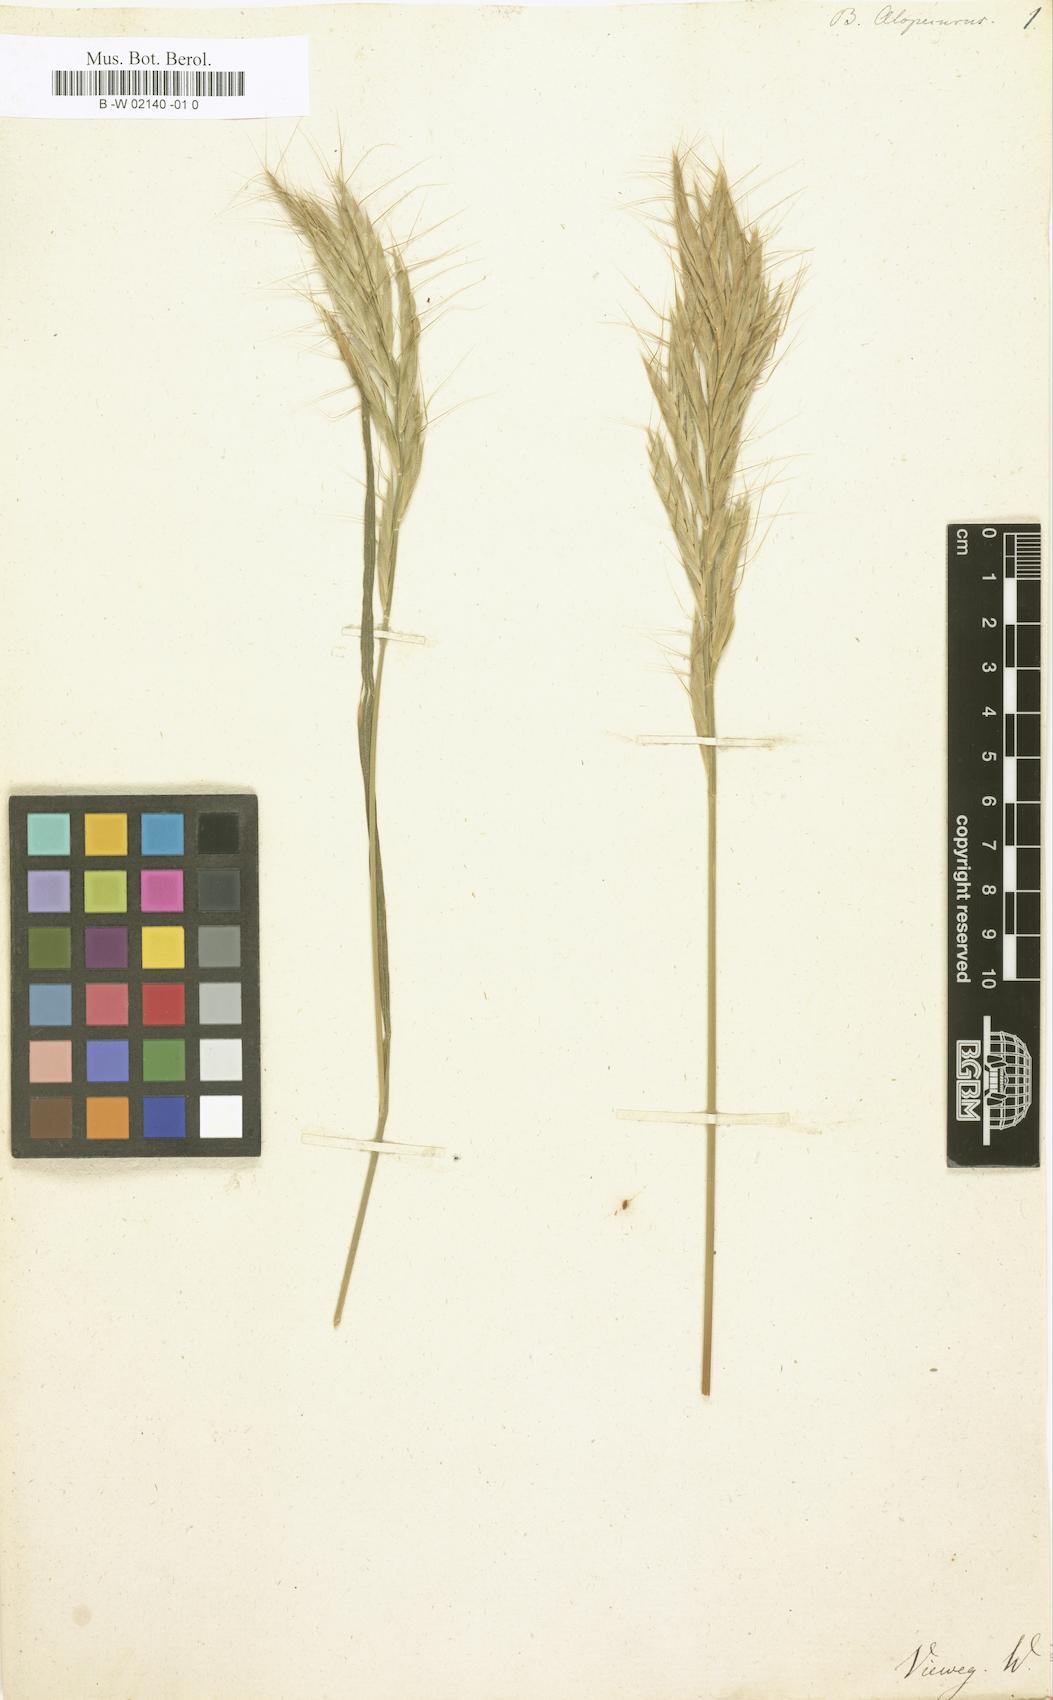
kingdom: Plantae
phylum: Tracheophyta
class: Liliopsida
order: Poales
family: Poaceae
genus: Bromus
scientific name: Bromus alopecuros
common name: Weedy brome
